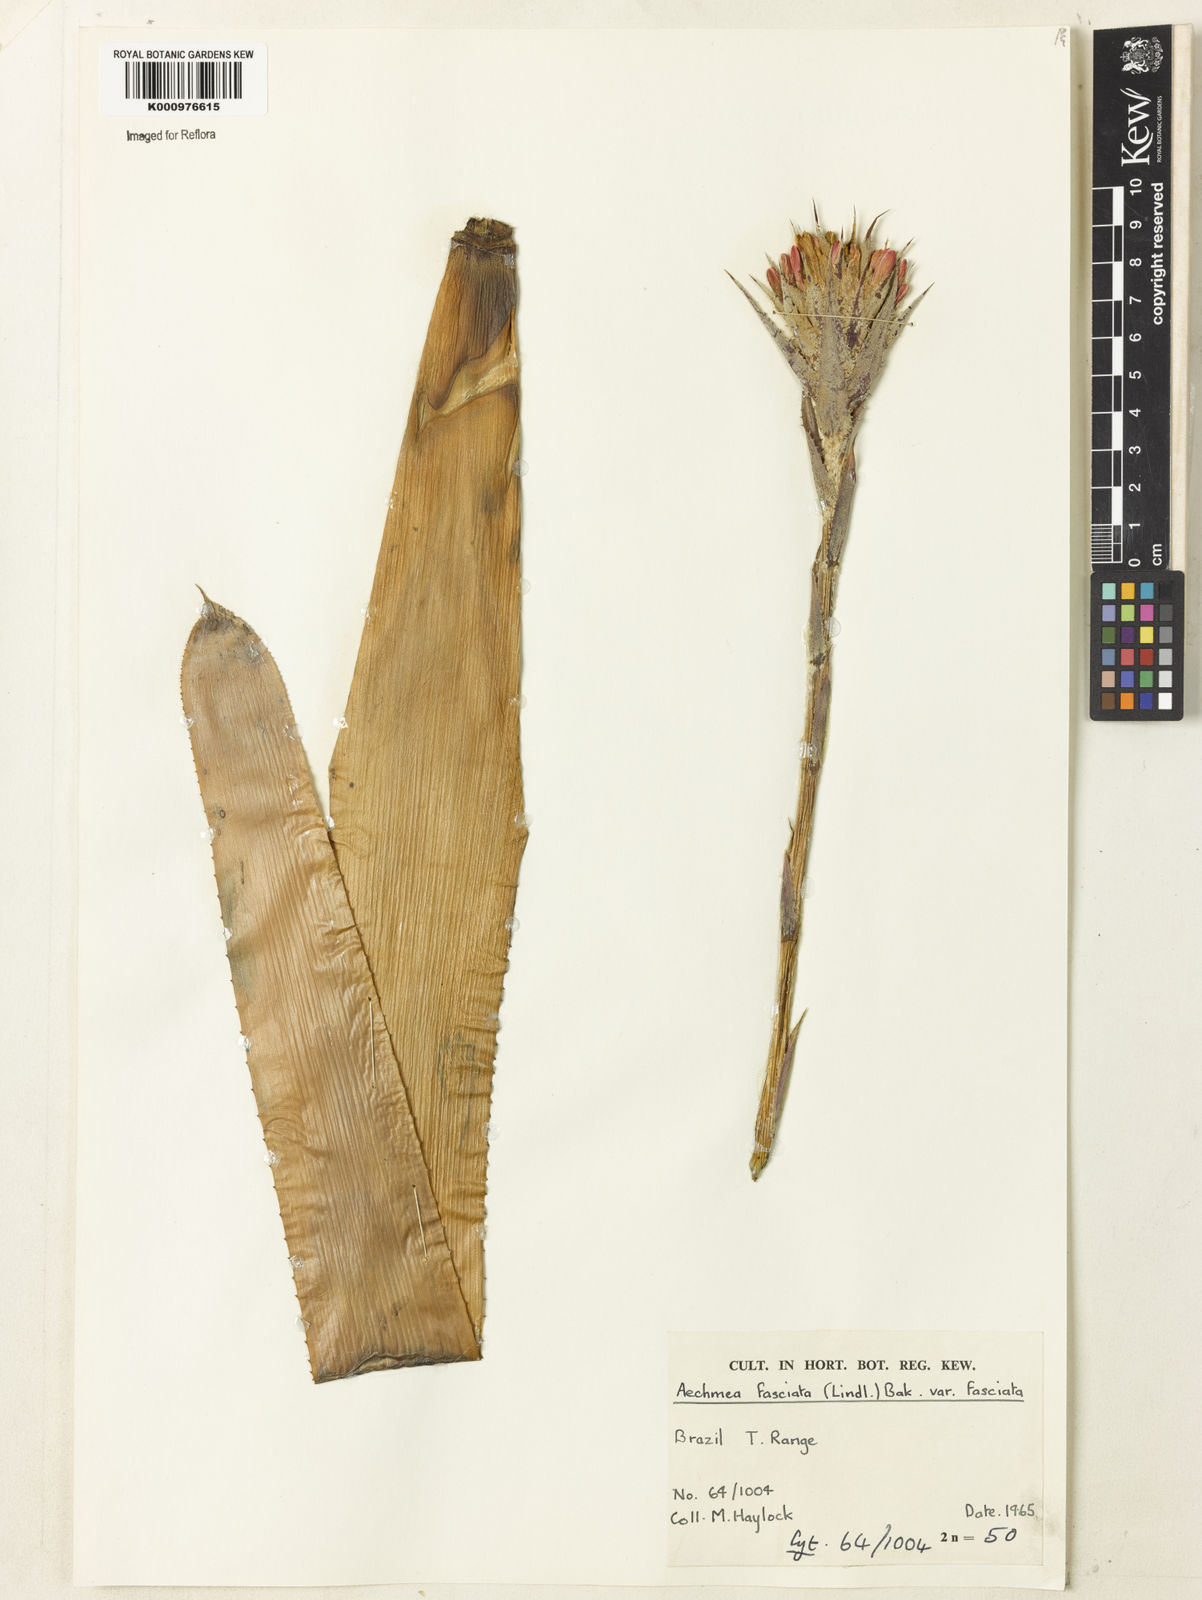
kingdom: Plantae
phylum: Tracheophyta
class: Liliopsida
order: Poales
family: Bromeliaceae
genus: Aechmea
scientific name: Aechmea fasciata
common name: Urnplant
